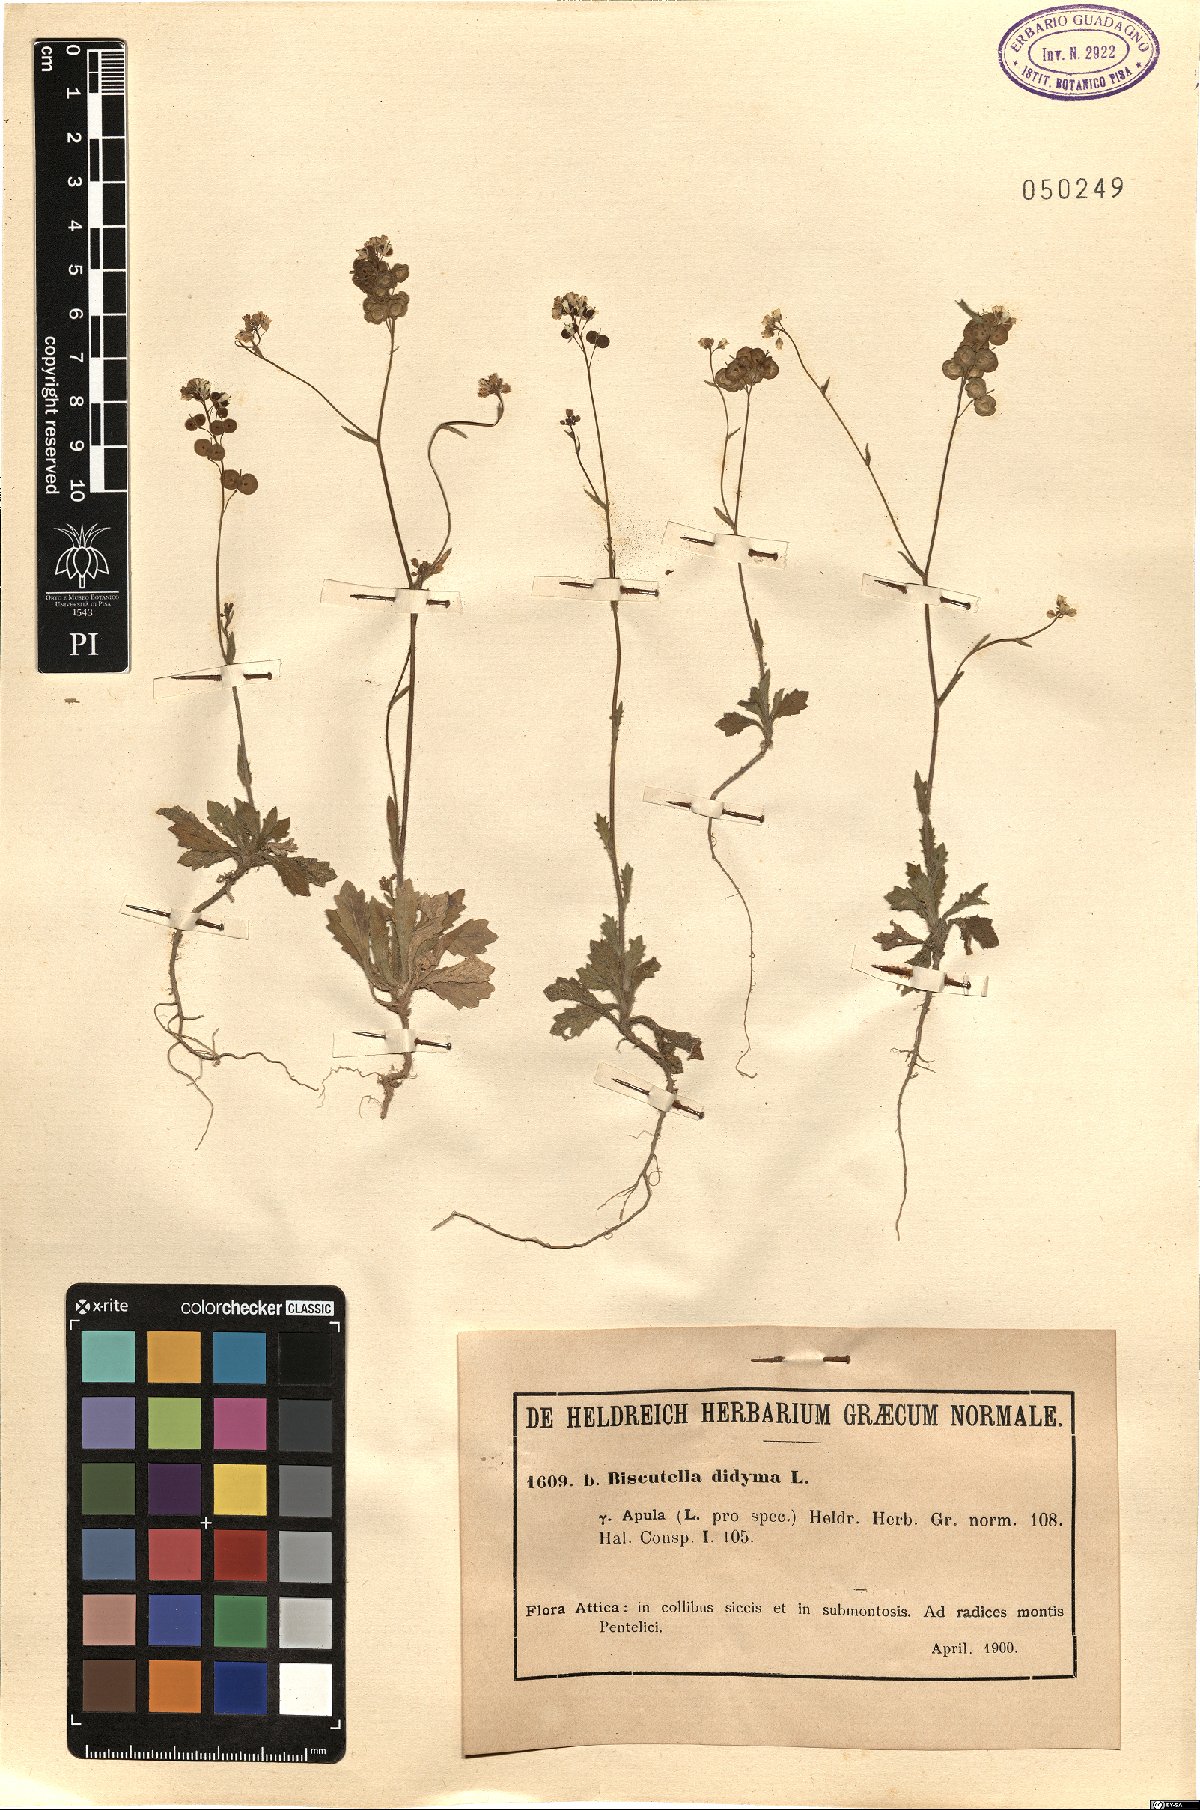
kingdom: Plantae
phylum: Tracheophyta
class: Magnoliopsida
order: Brassicales
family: Brassicaceae
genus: Biscutella
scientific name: Biscutella didyma
